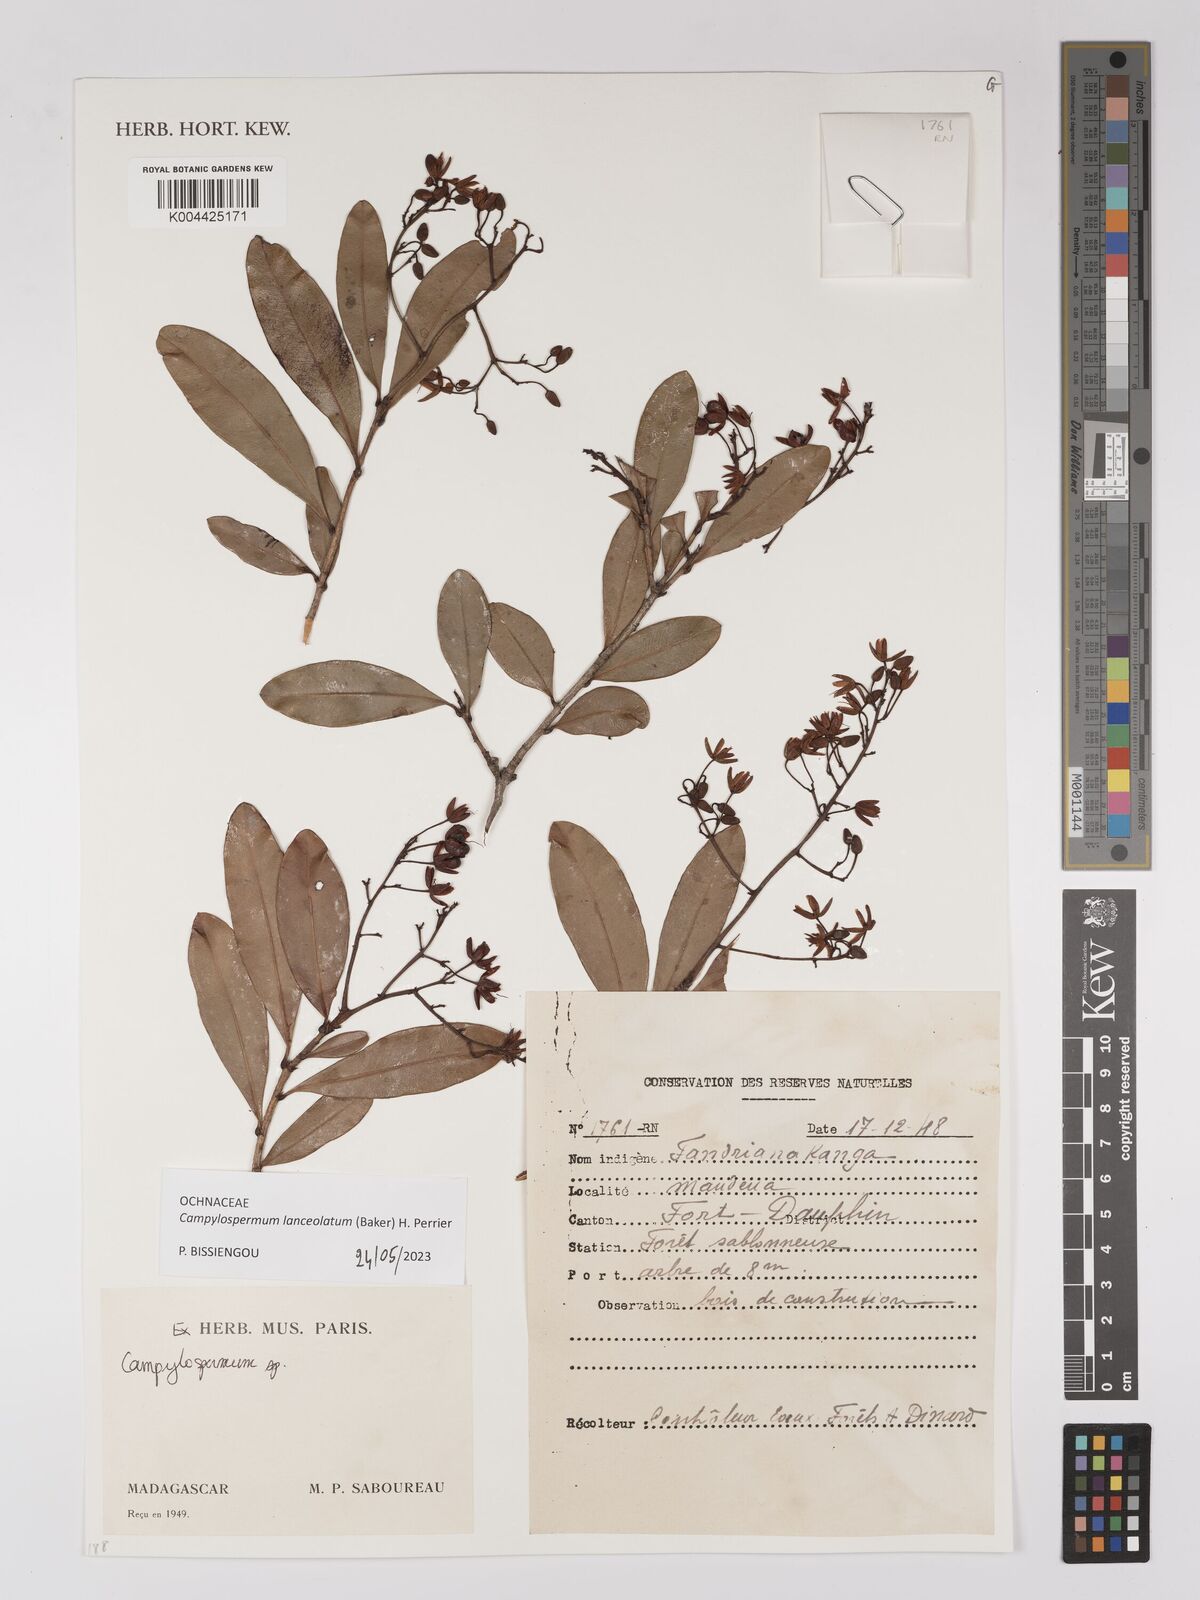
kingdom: Plantae
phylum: Tracheophyta
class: Magnoliopsida
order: Malpighiales
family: Ochnaceae
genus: Campylospermum
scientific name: Campylospermum
